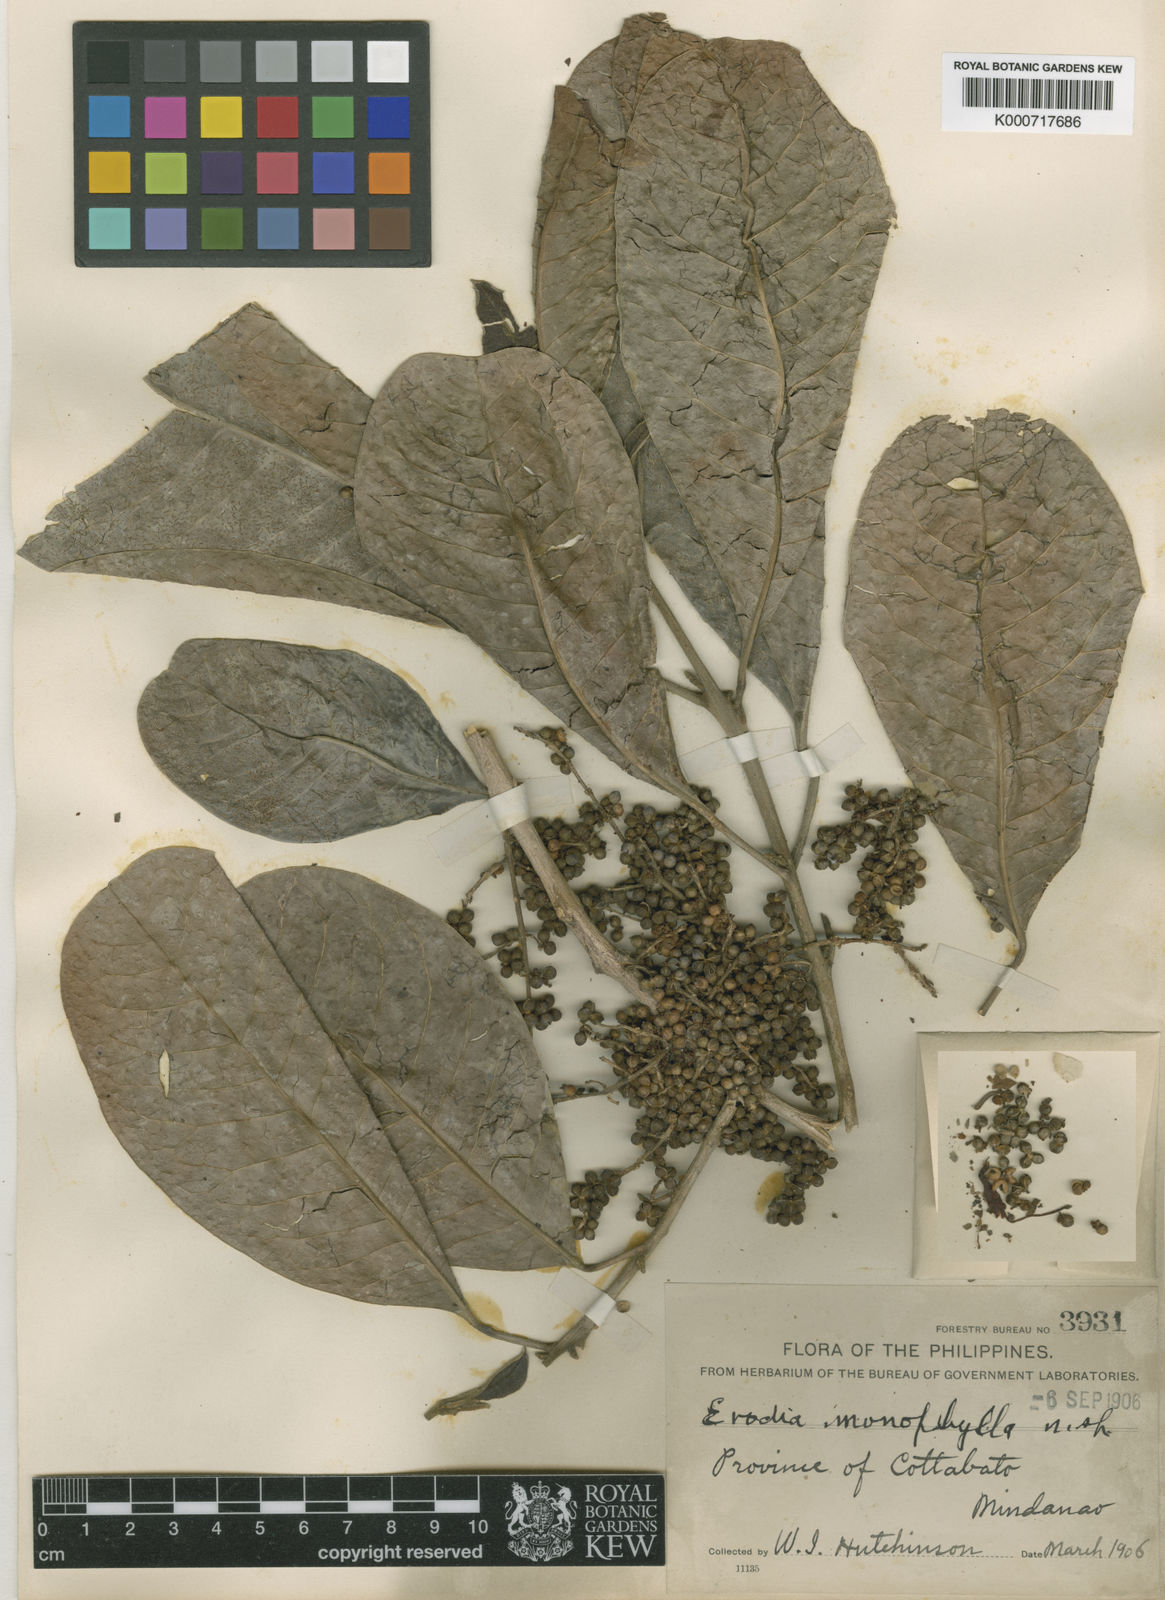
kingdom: Plantae
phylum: Tracheophyta
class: Magnoliopsida
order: Sapindales
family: Rutaceae
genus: Melicope
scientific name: Melicope mindorensis
